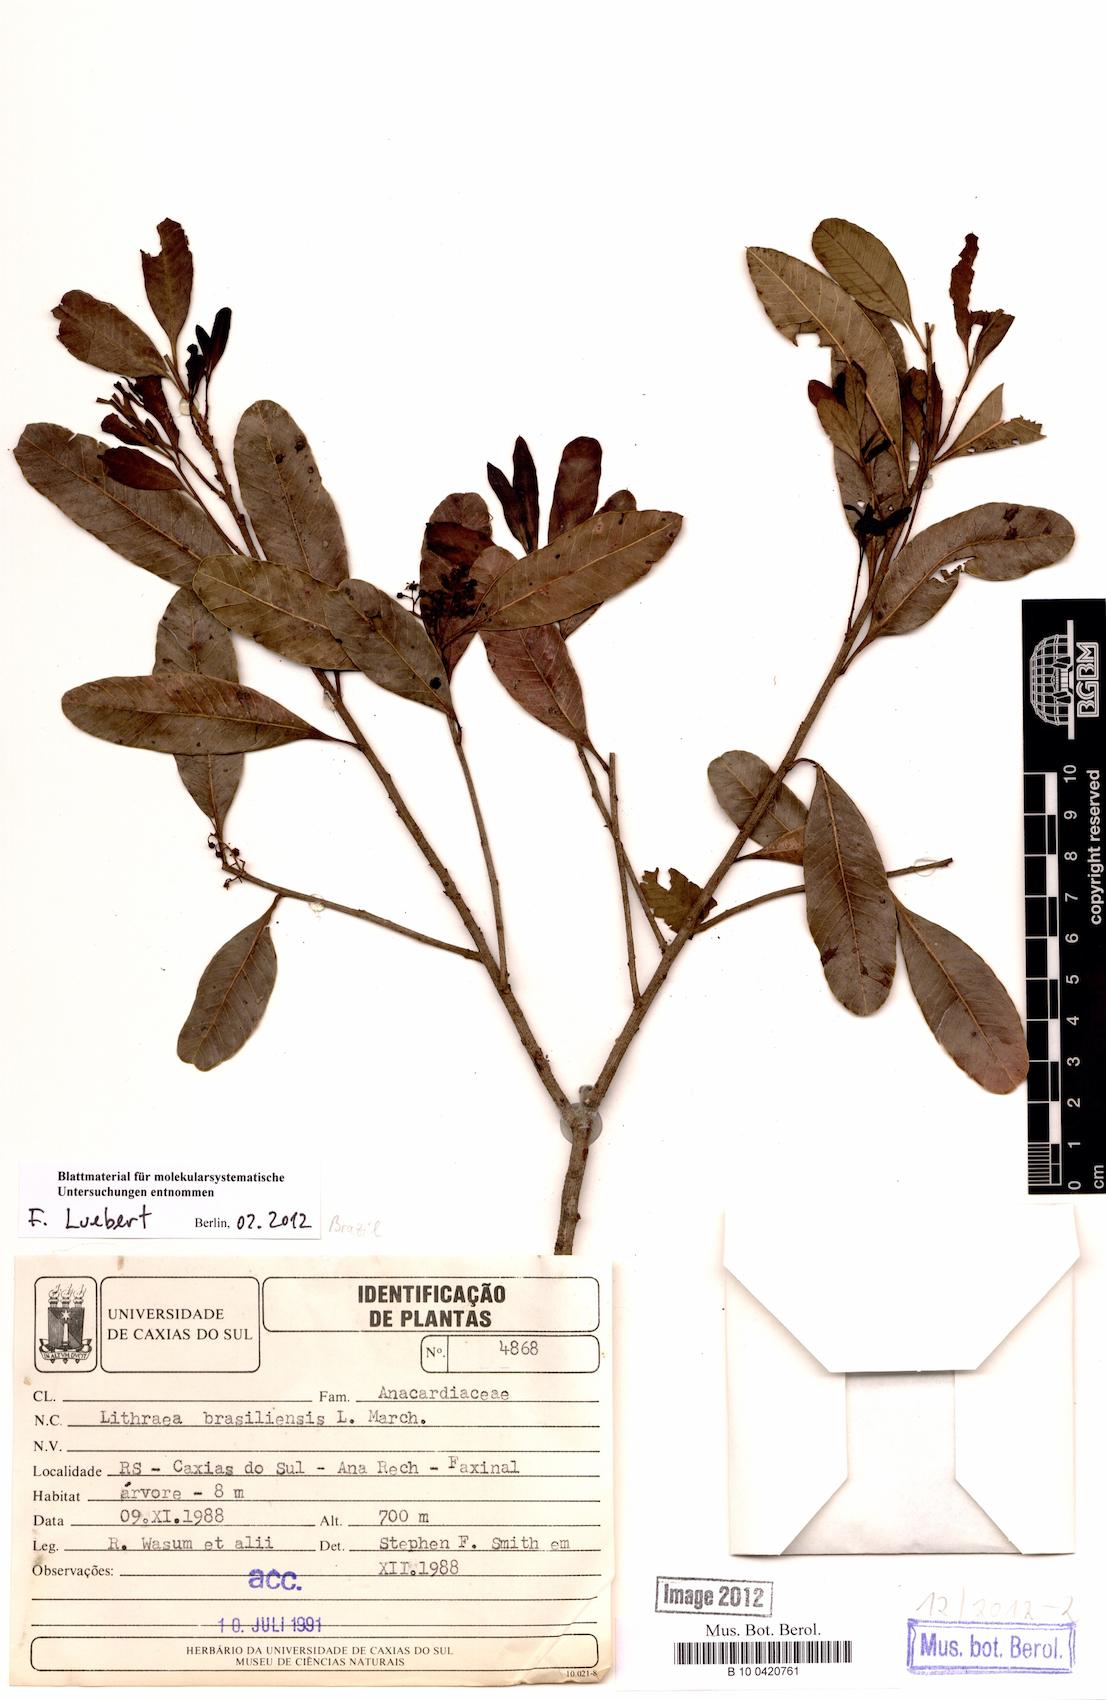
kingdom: Plantae
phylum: Tracheophyta
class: Magnoliopsida
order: Sapindales
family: Anacardiaceae
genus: Lithraea
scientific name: Lithraea brasiliensis
